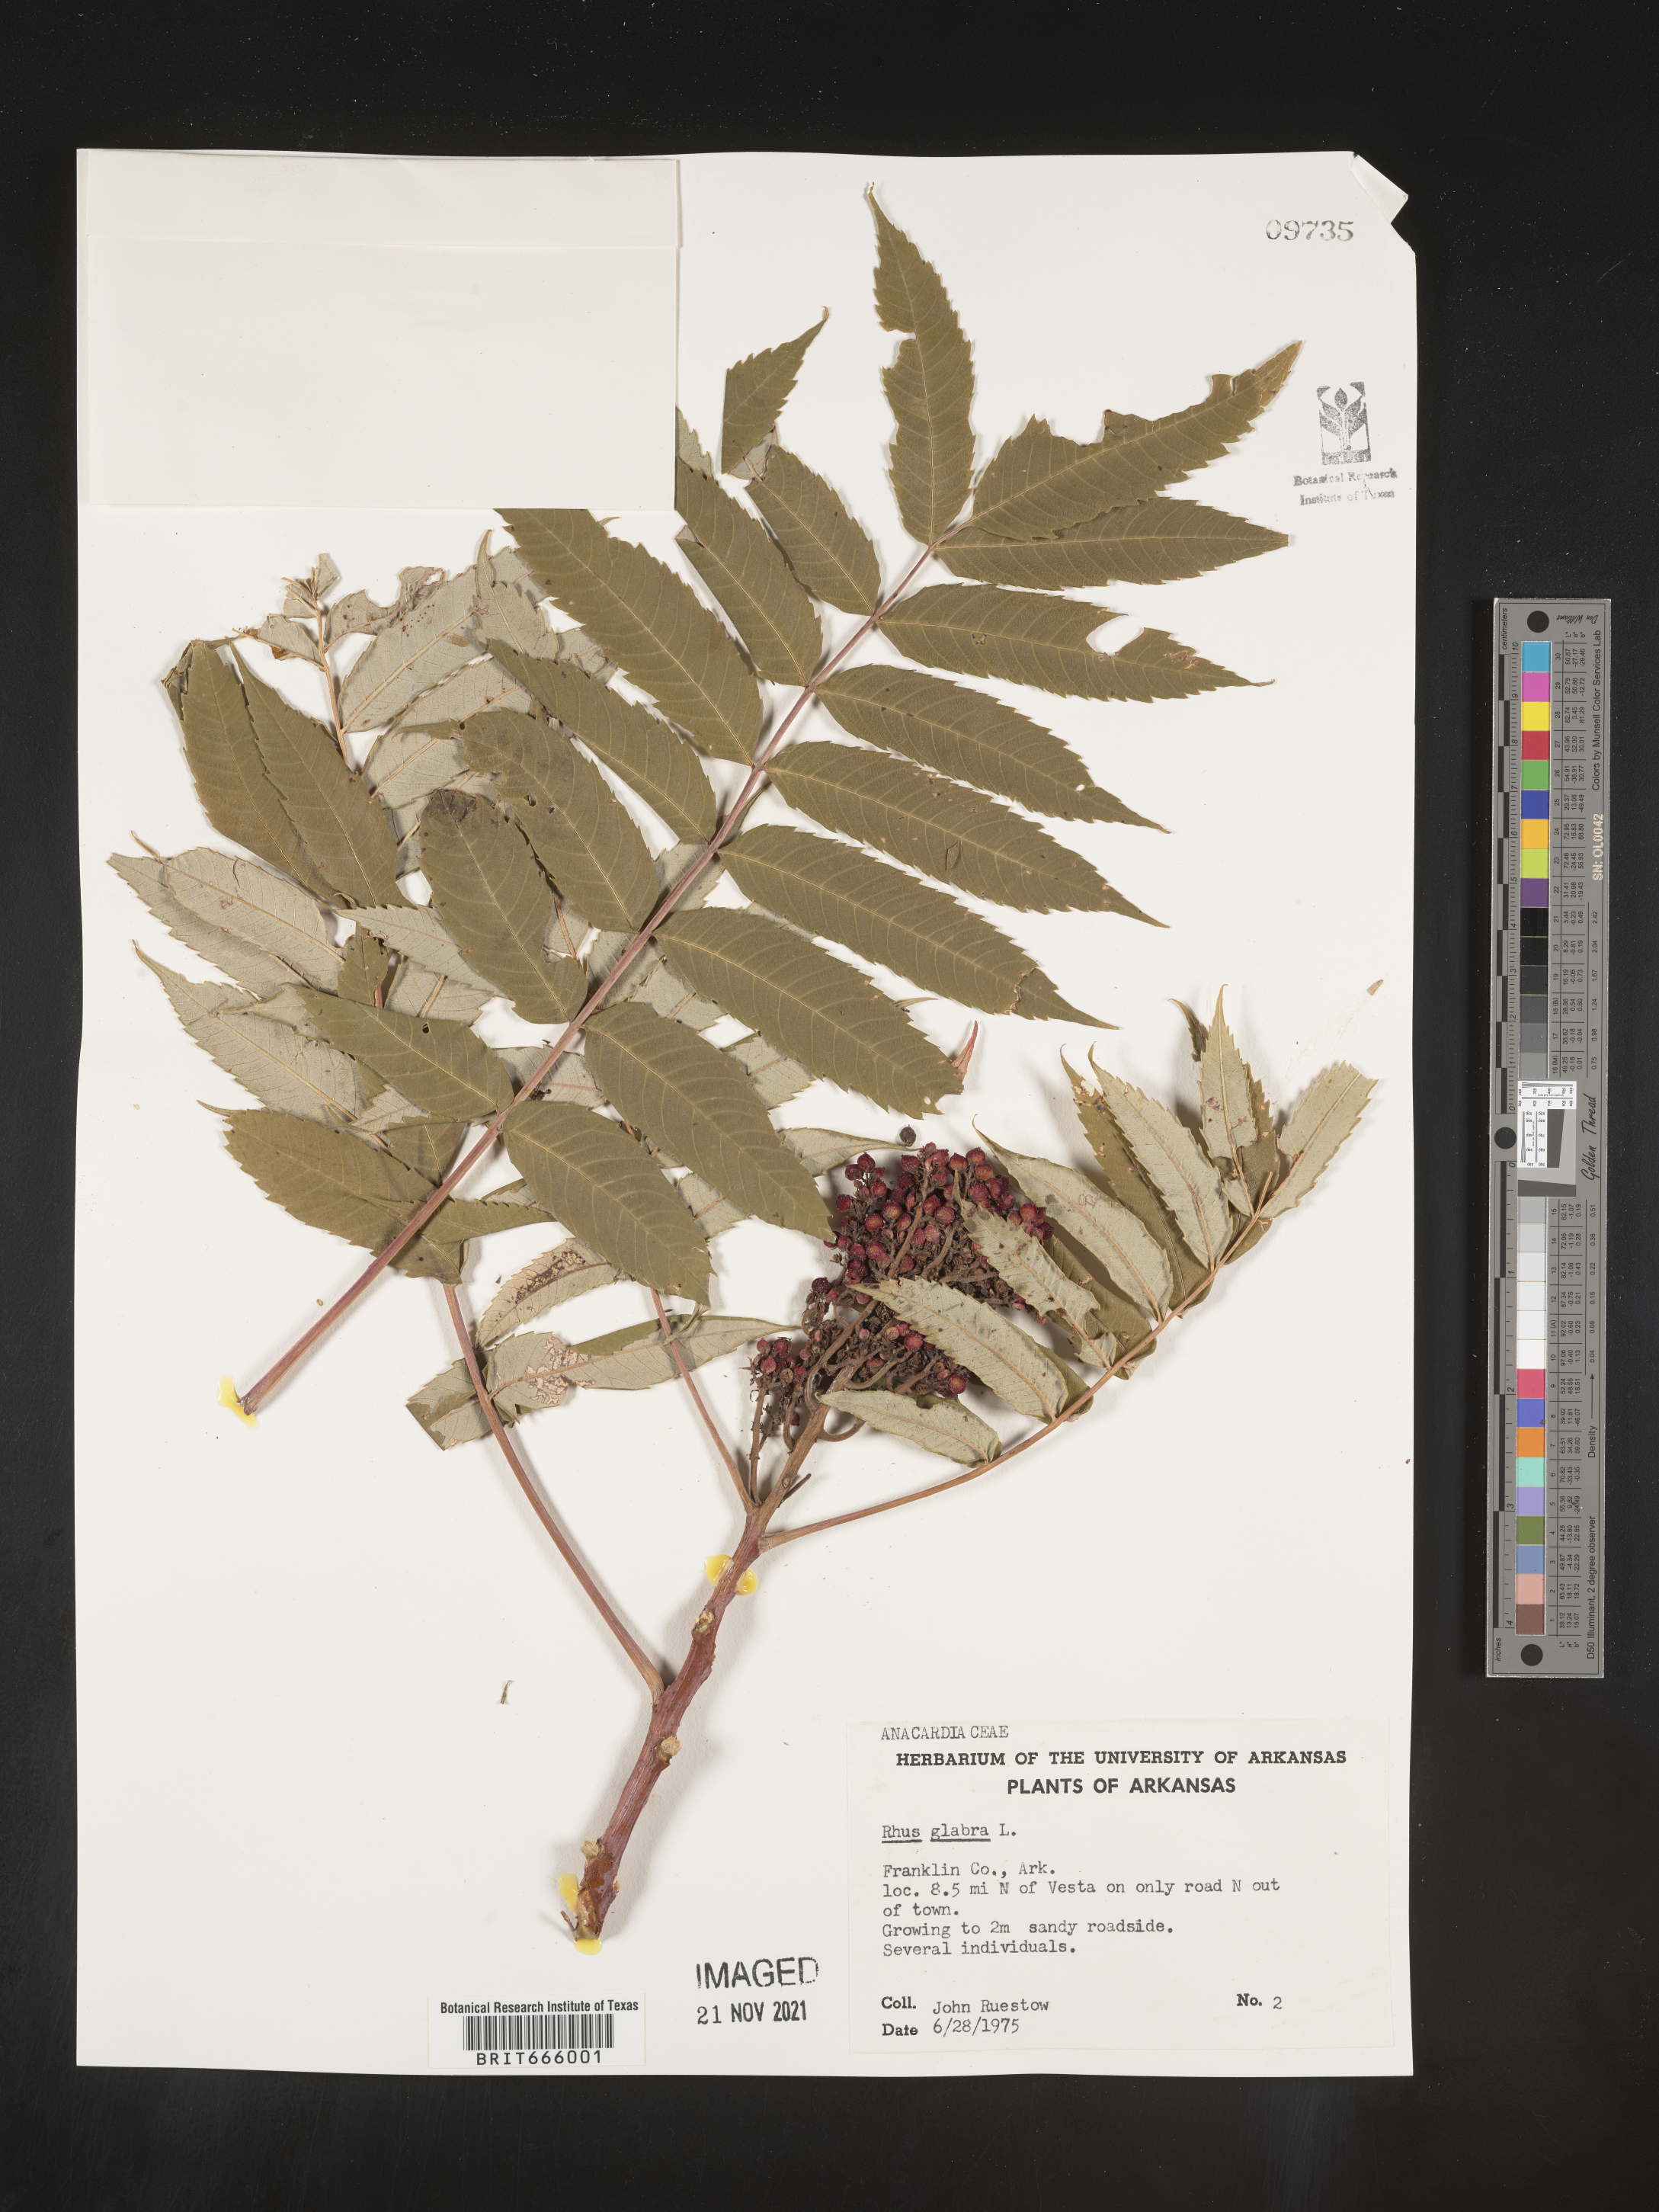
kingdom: Plantae
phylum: Tracheophyta
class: Magnoliopsida
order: Sapindales
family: Anacardiaceae
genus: Rhus
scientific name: Rhus glabra
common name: Scarlet sumac
